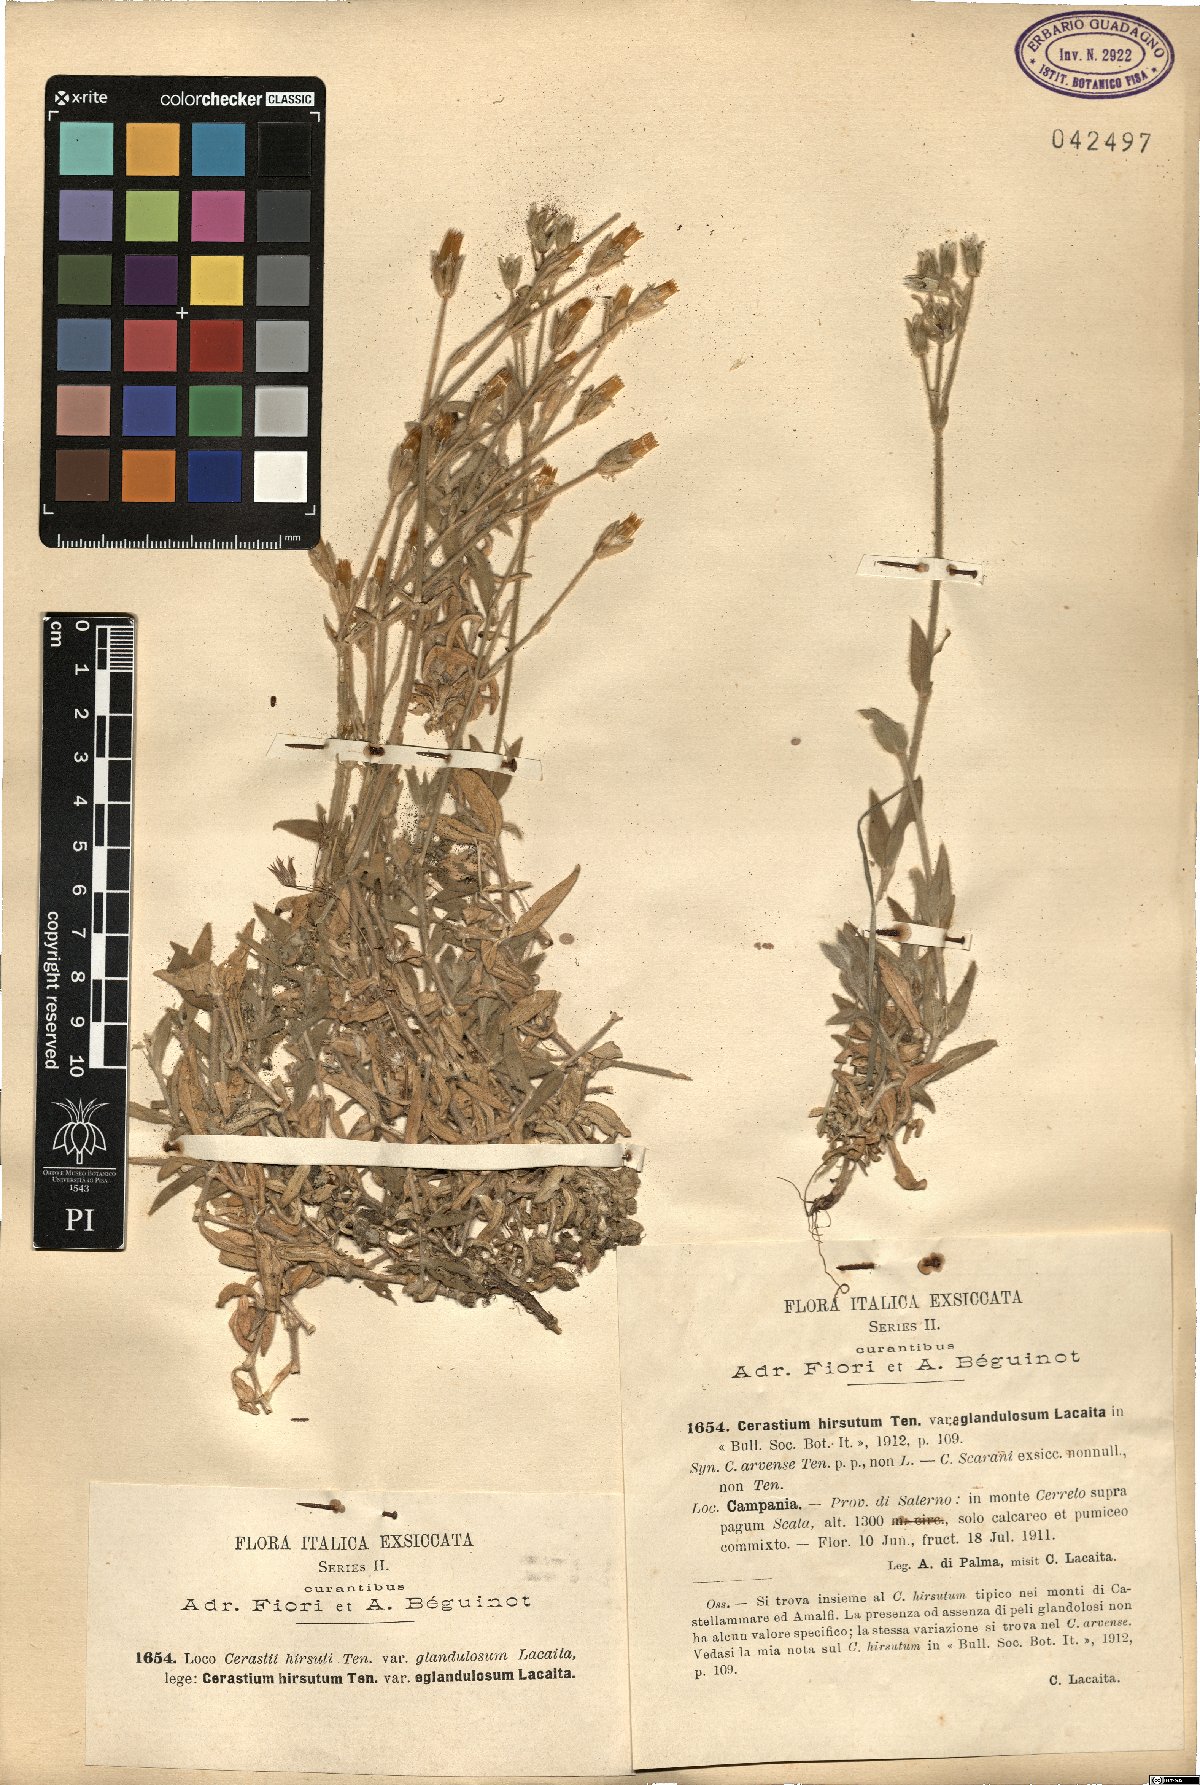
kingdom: Plantae
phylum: Tracheophyta
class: Magnoliopsida
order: Caryophyllales
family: Caryophyllaceae
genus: Cerastium
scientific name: Cerastium
